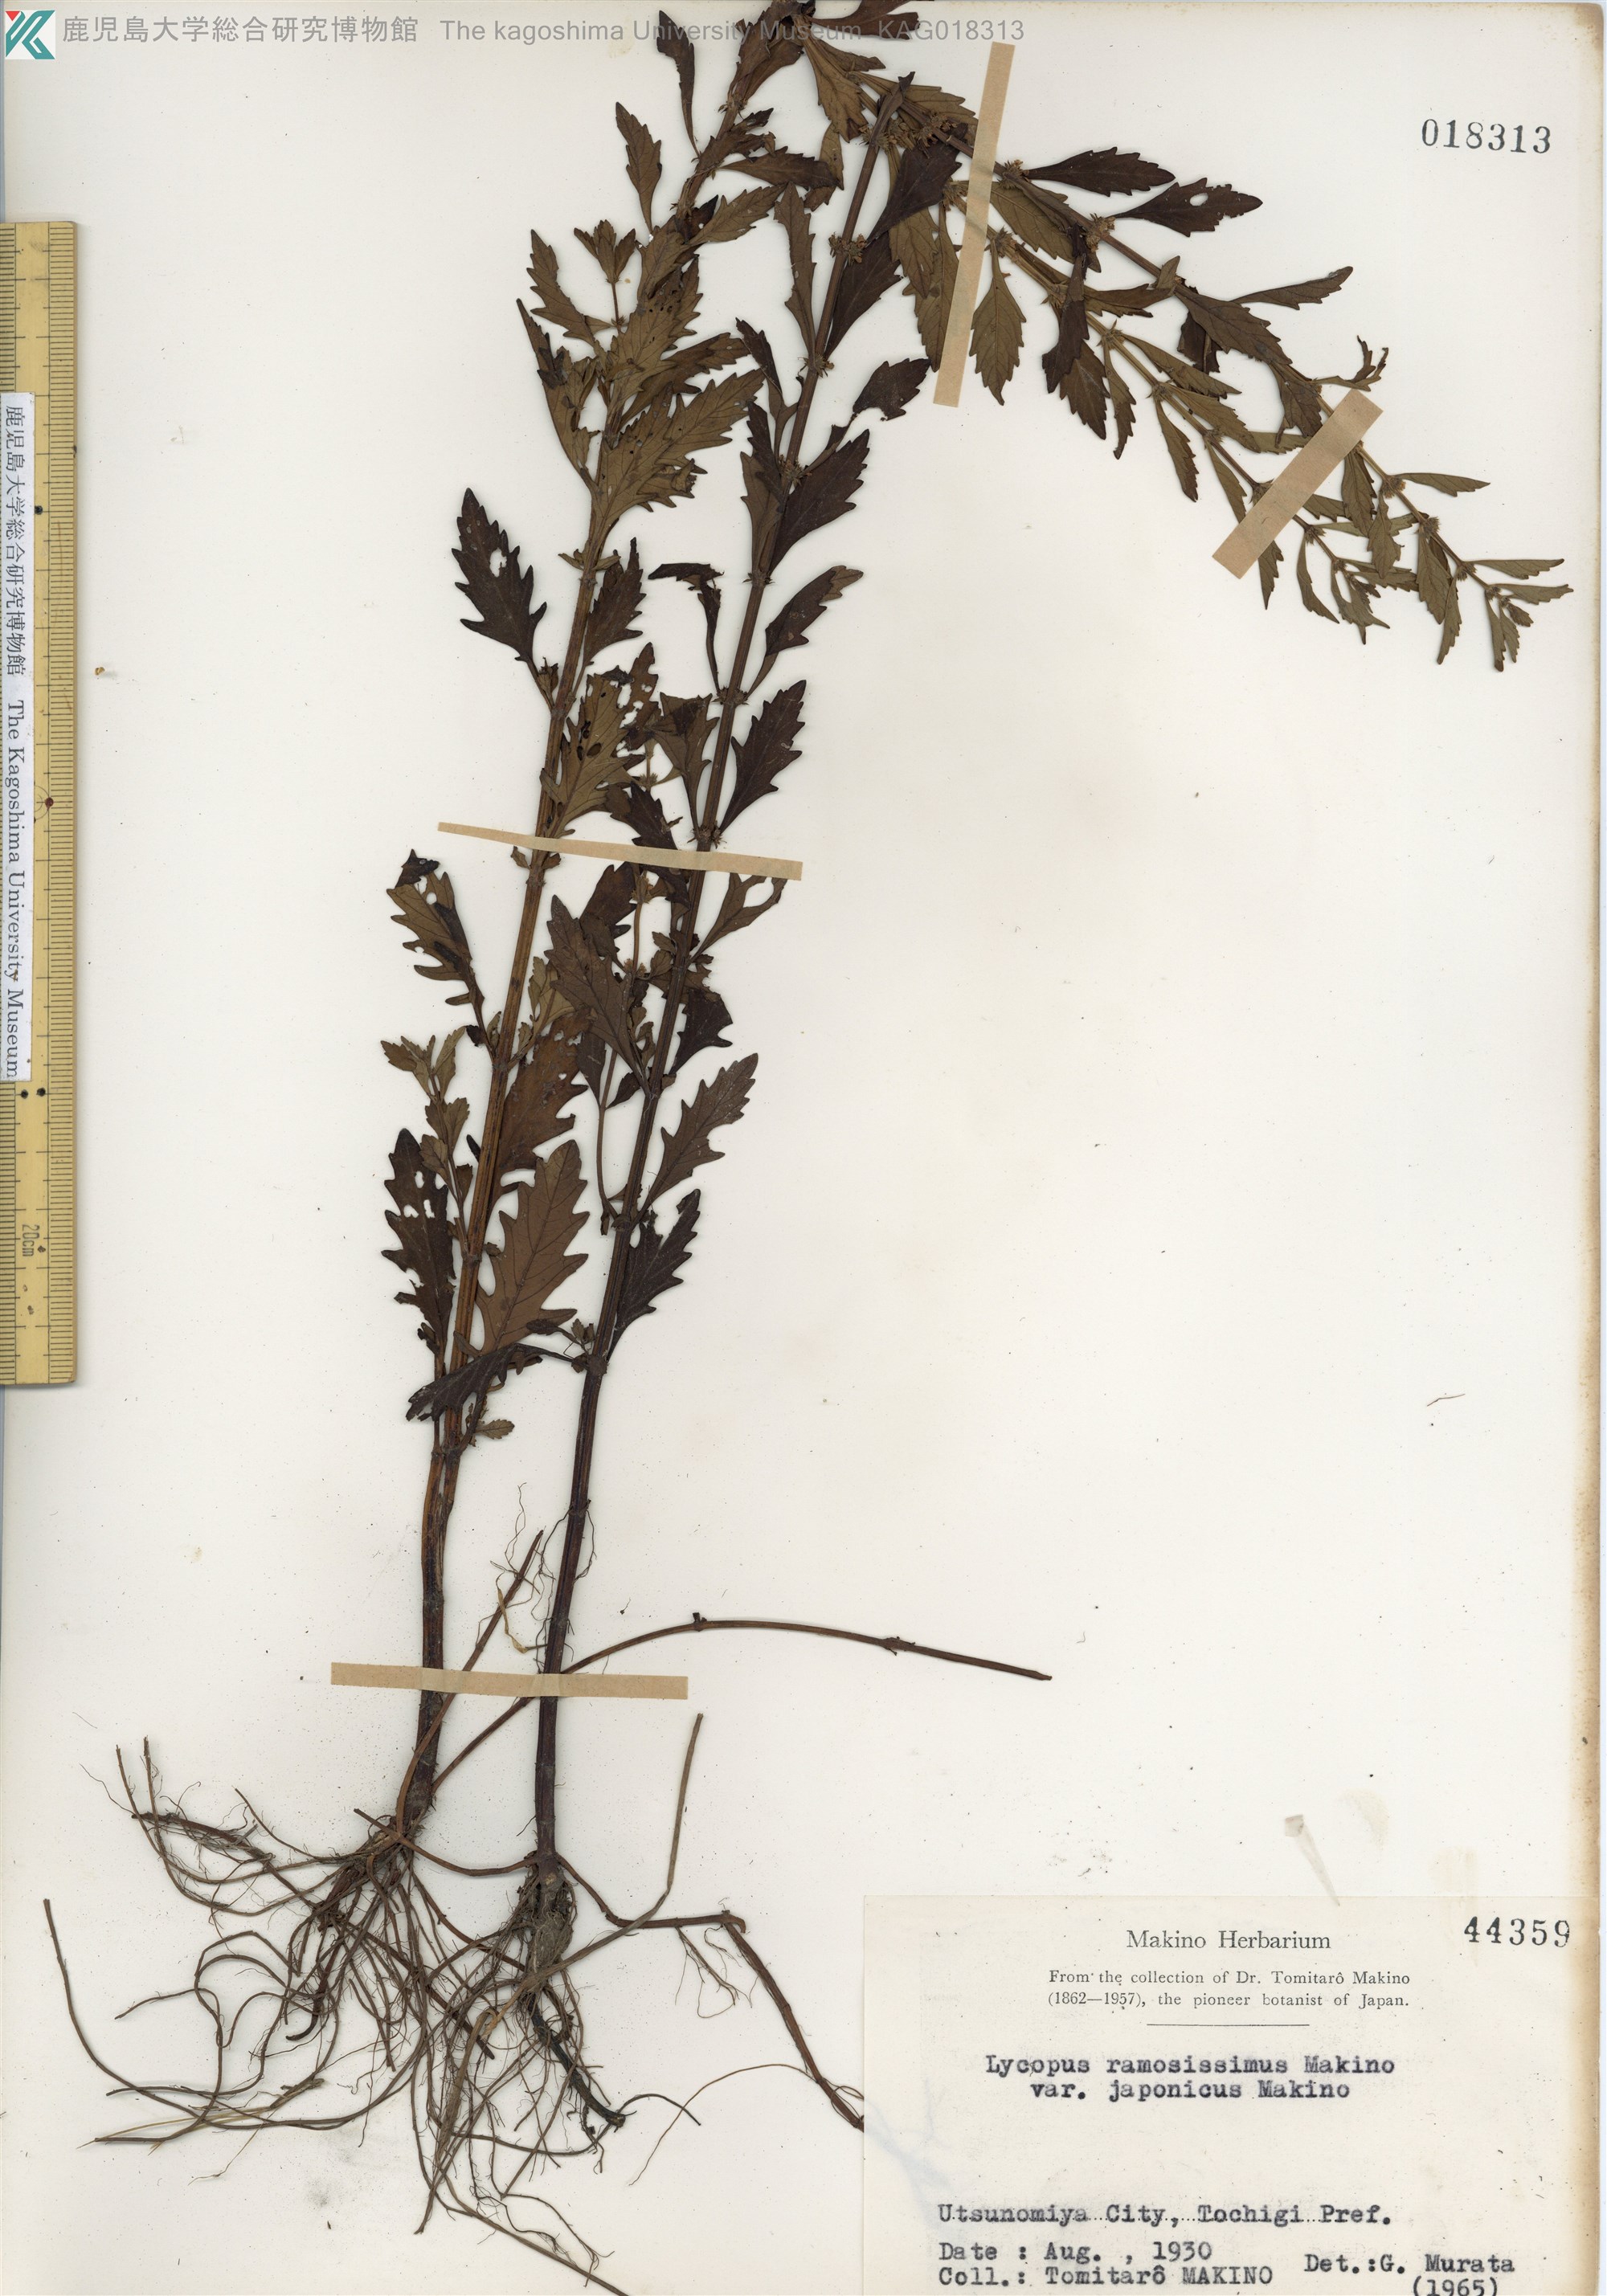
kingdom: Plantae
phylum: Tracheophyta
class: Magnoliopsida
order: Lamiales
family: Lamiaceae
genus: Lycopus
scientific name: Lycopus cavaleriei
